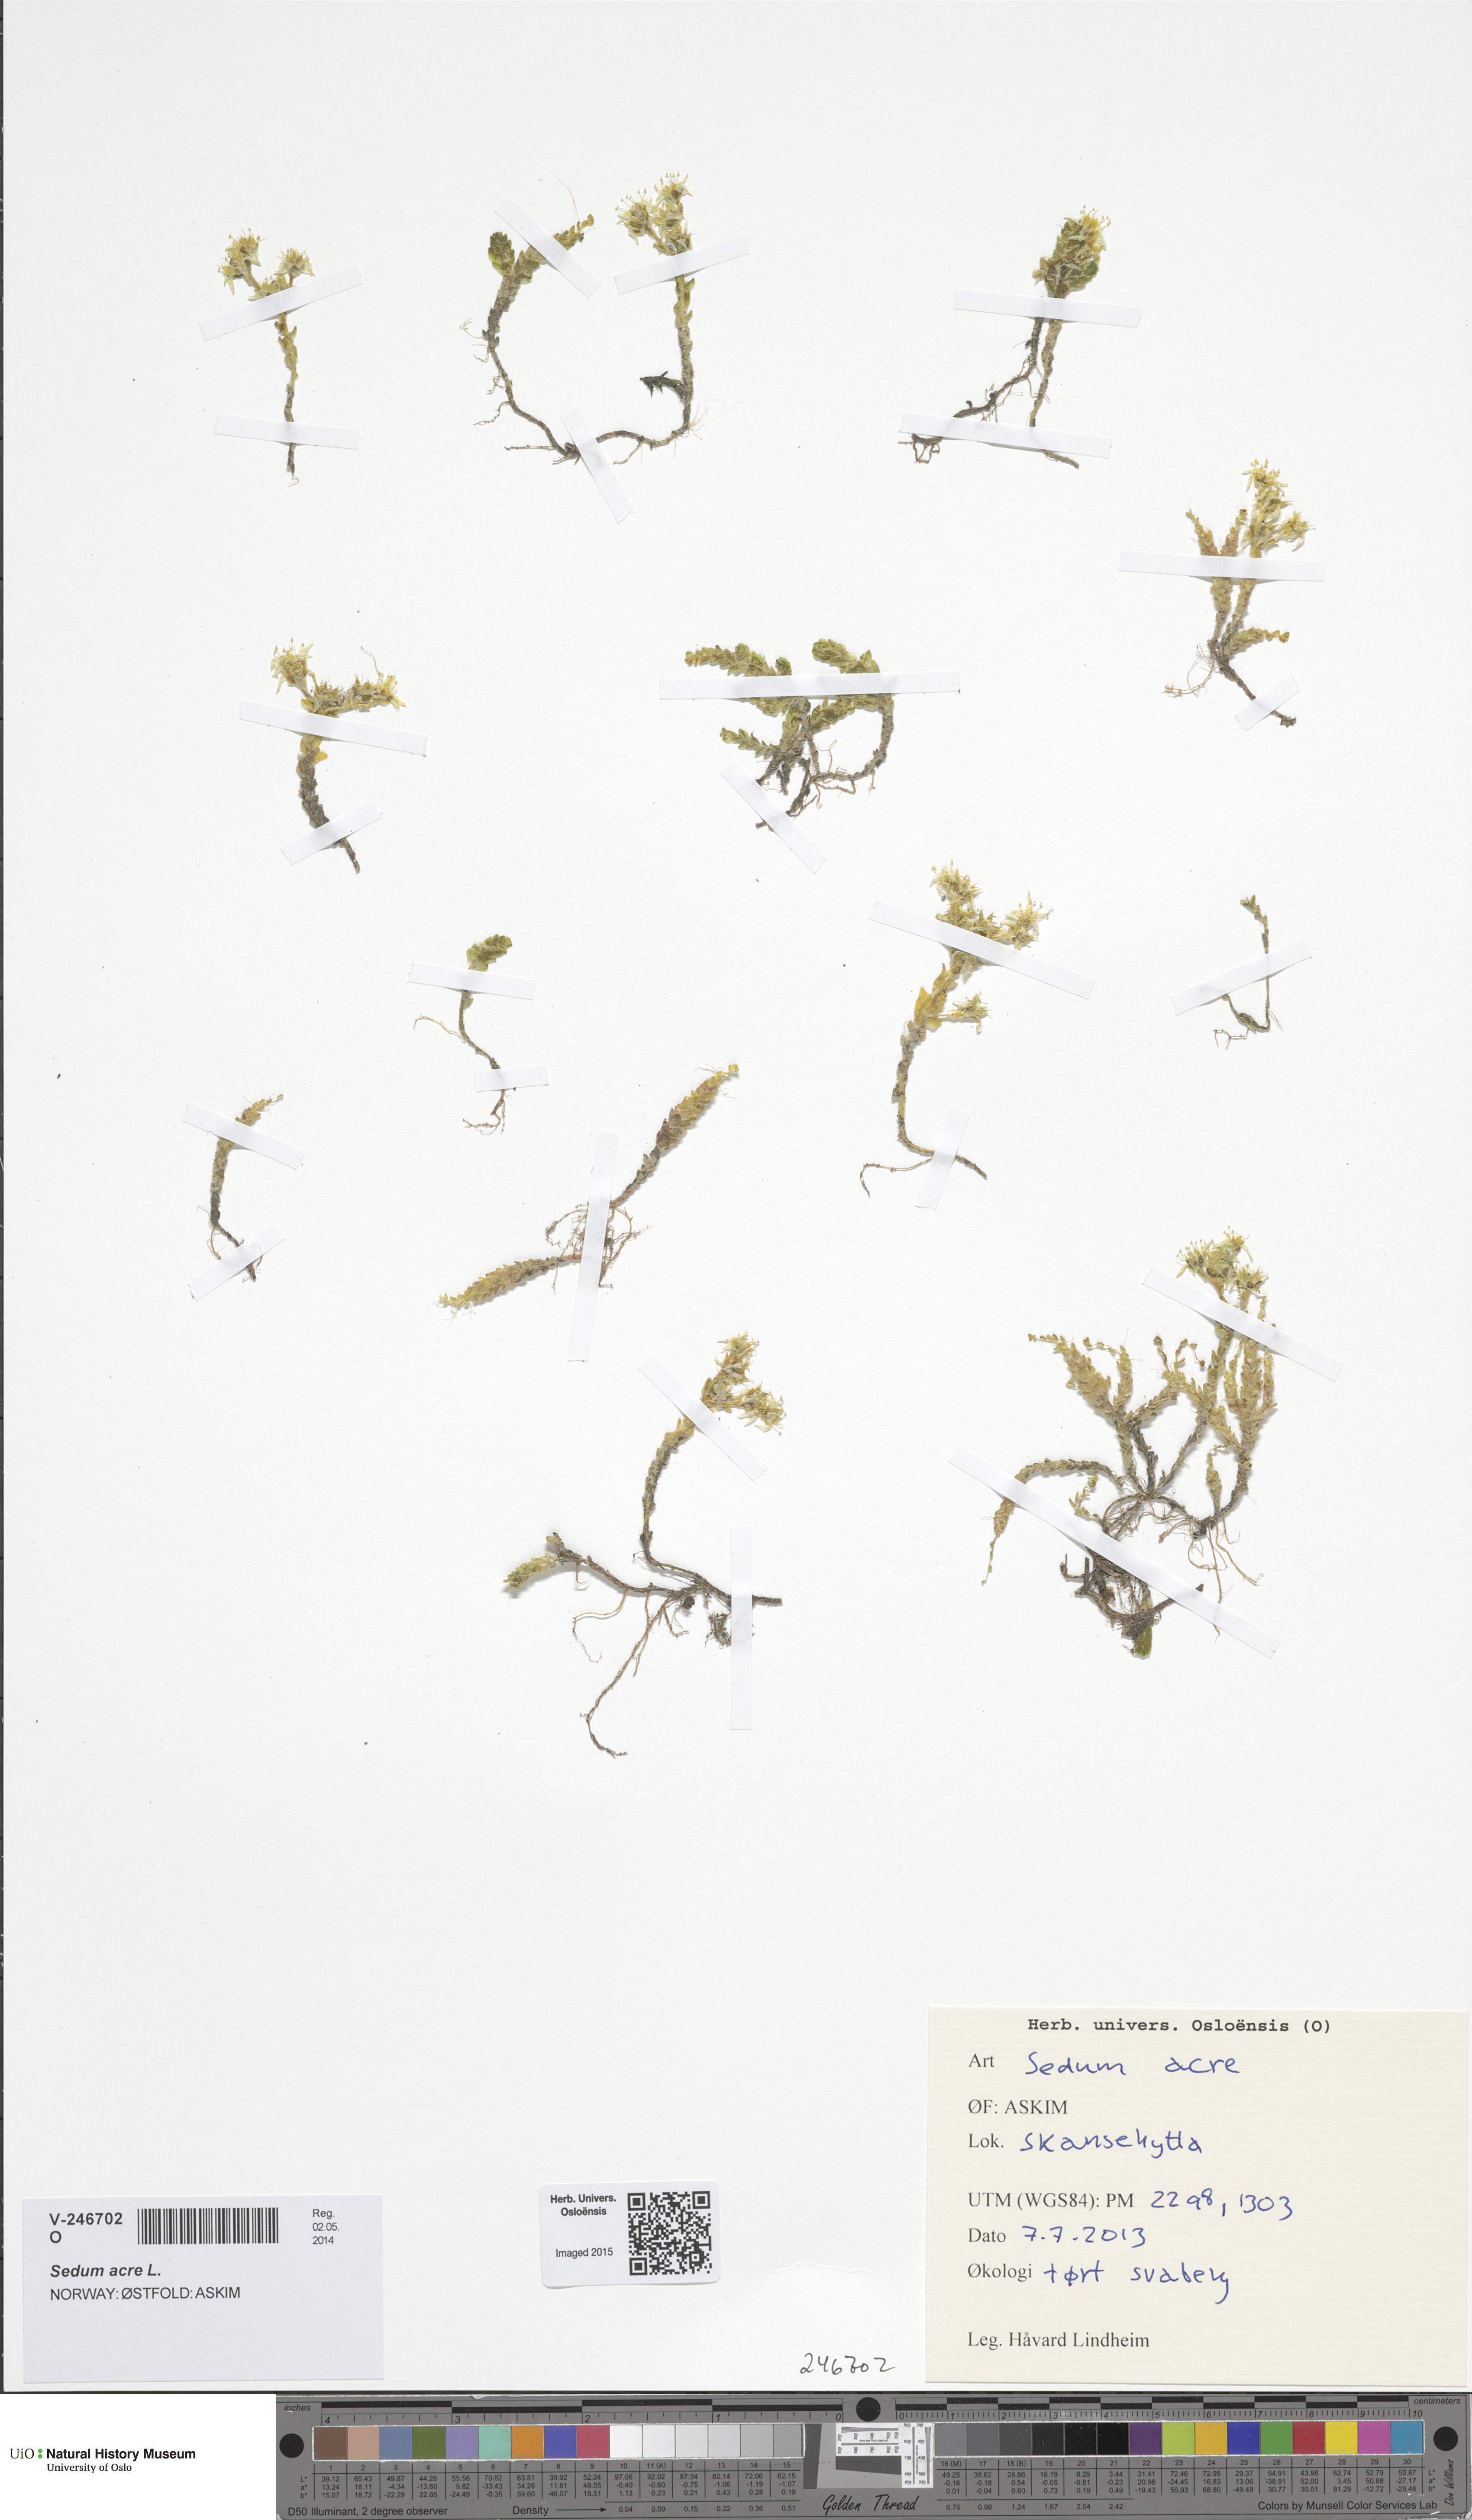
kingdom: Plantae
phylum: Tracheophyta
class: Magnoliopsida
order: Saxifragales
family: Crassulaceae
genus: Sedum
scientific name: Sedum acre
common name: Biting stonecrop
